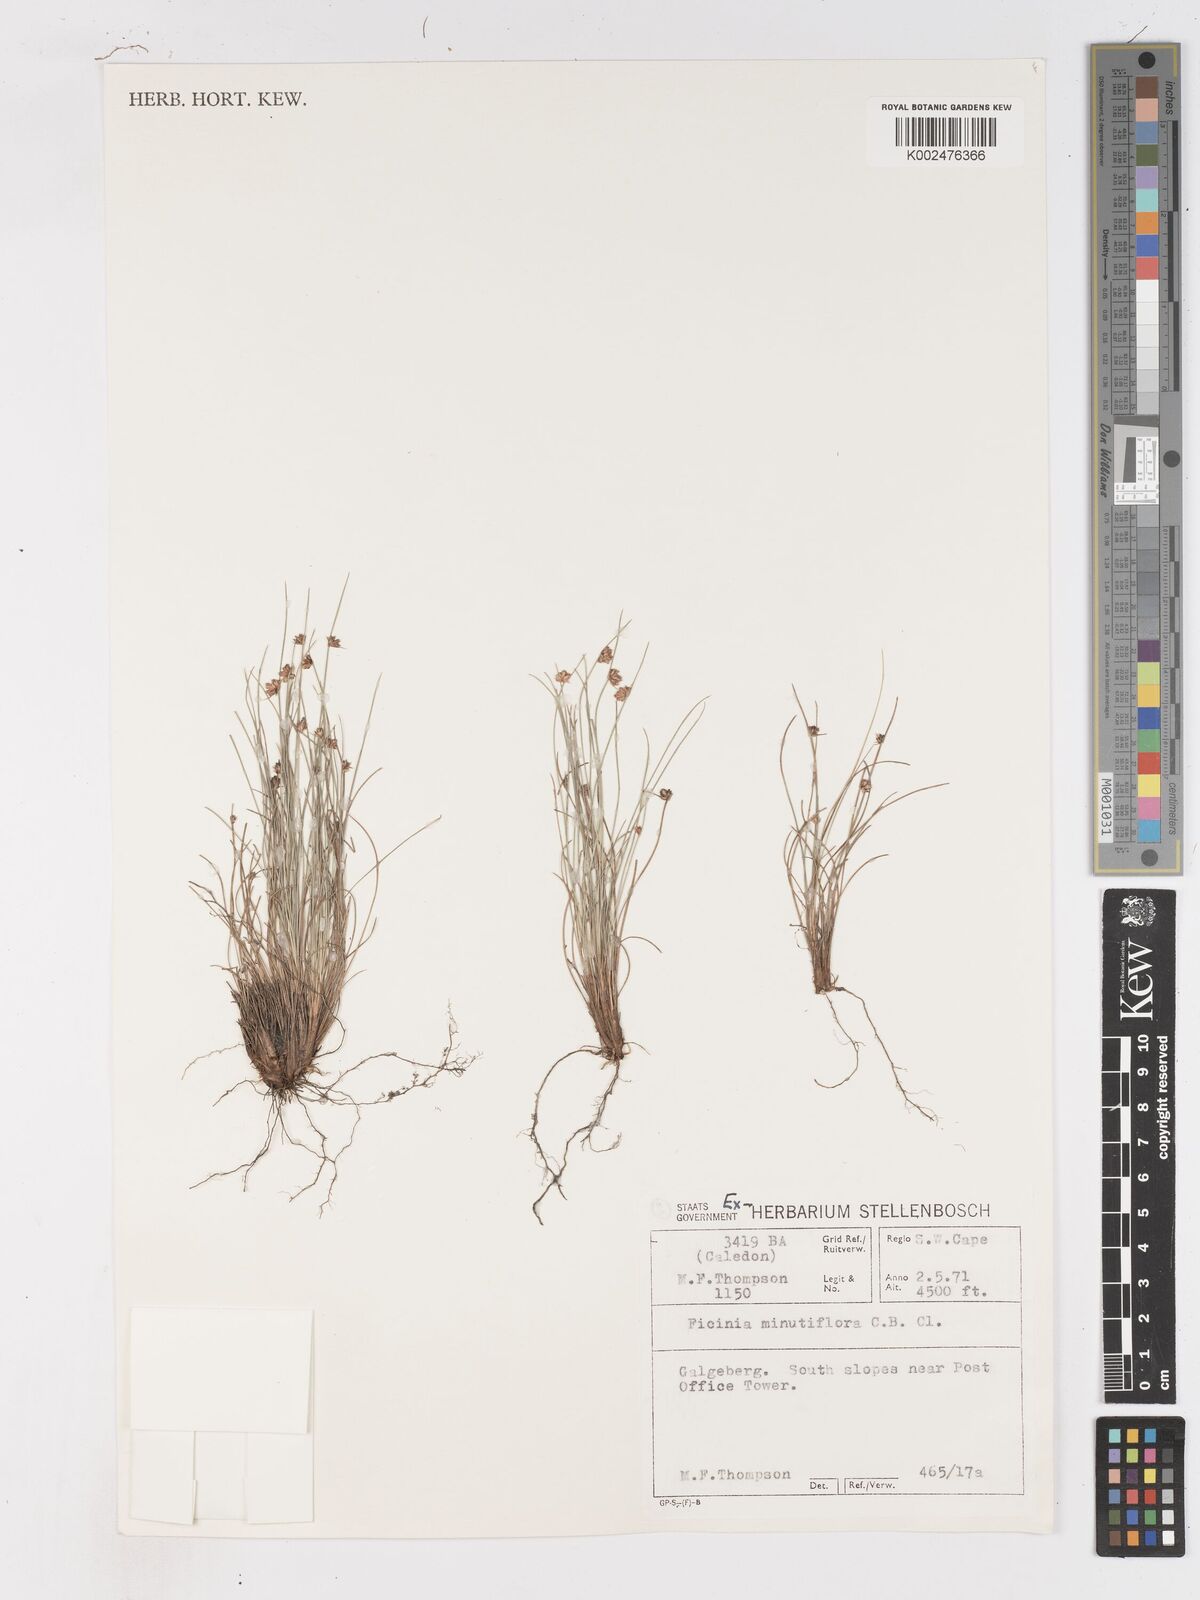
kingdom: Plantae
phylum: Tracheophyta
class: Liliopsida
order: Poales
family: Cyperaceae
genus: Ficinia
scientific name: Ficinia oligantha
